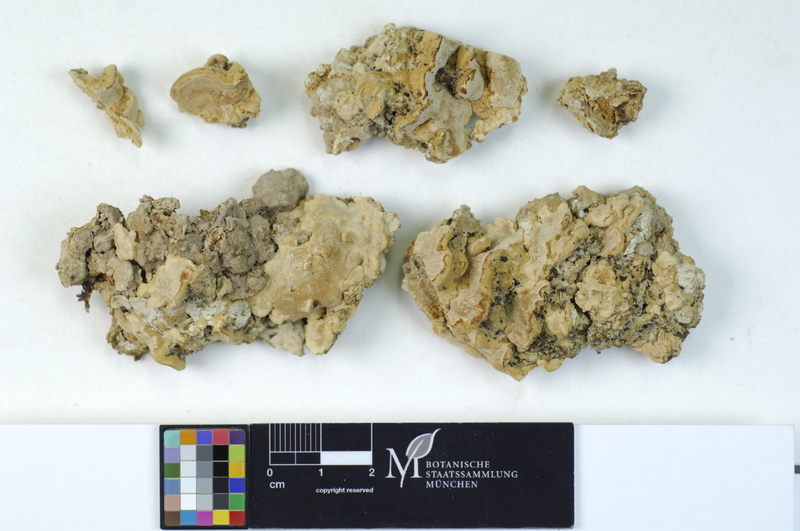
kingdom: Fungi
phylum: Basidiomycota
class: Agaricomycetes
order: Hymenochaetales
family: Oxyporaceae
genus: Oxyporus
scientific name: Oxyporus populinus
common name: Poplar bracket
